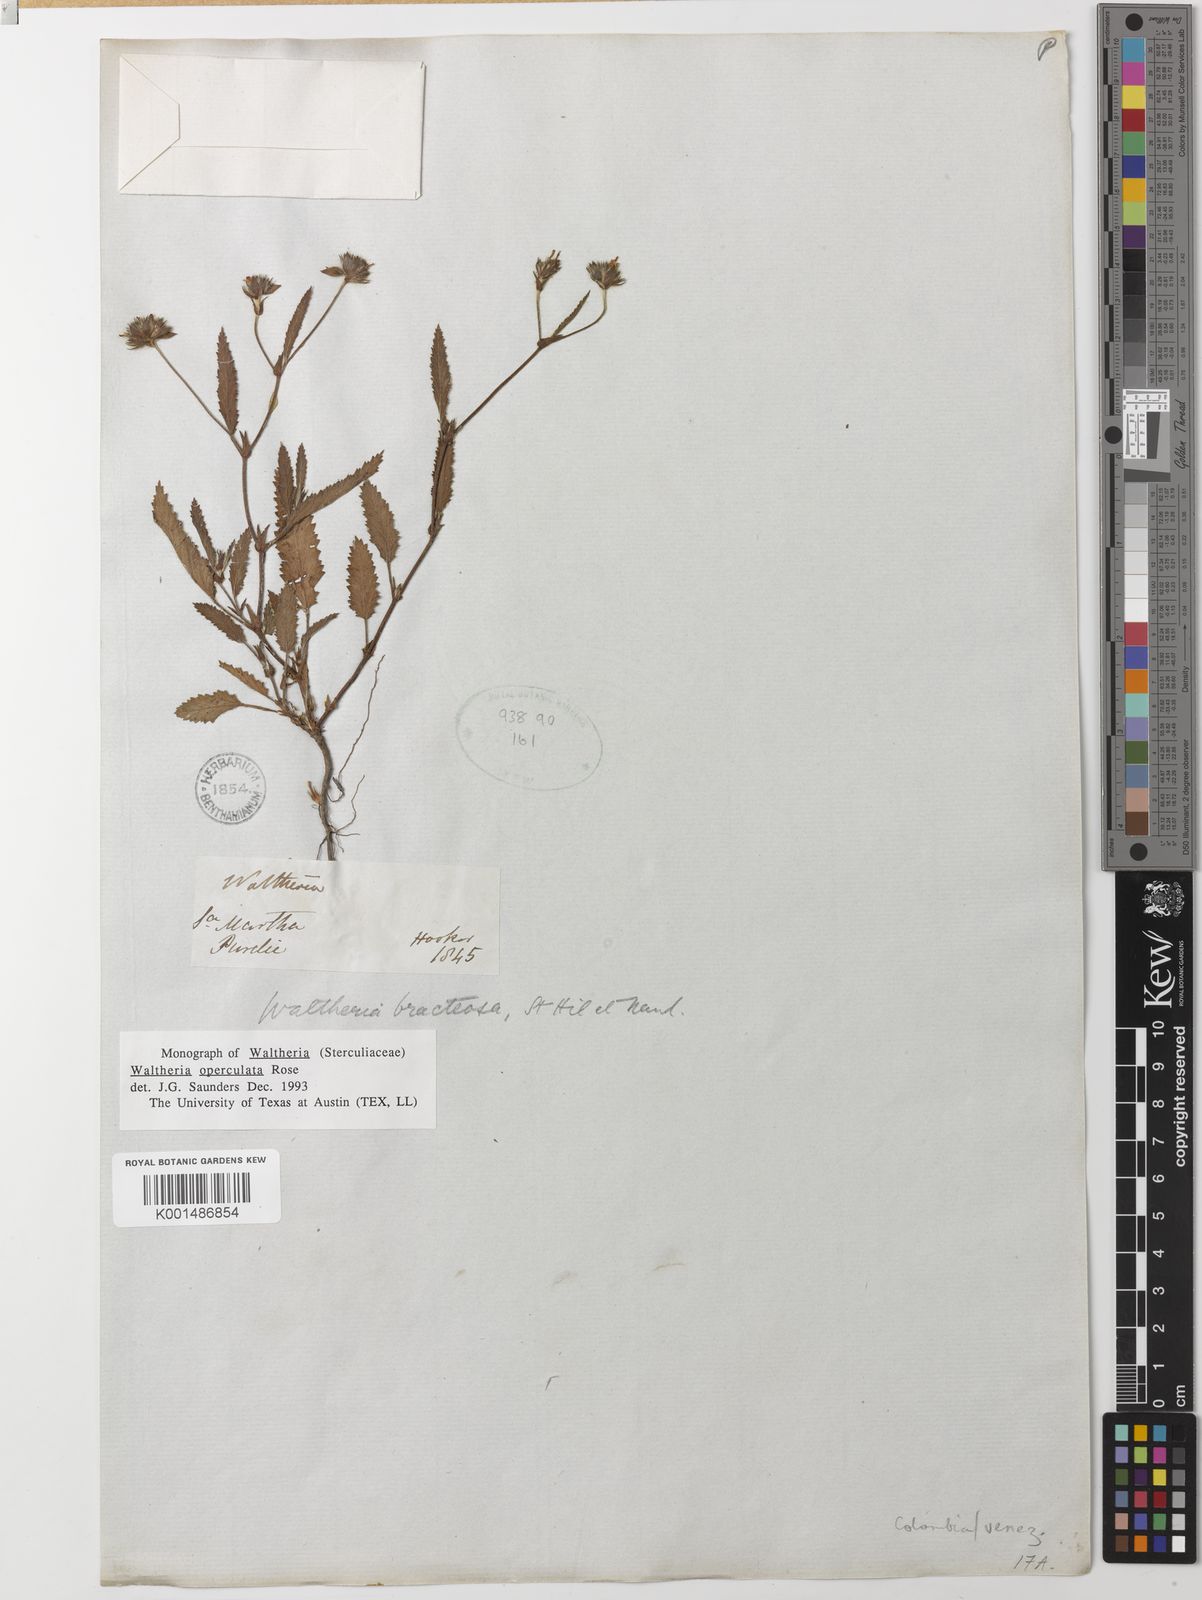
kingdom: Plantae
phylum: Tracheophyta
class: Magnoliopsida
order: Malvales
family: Malvaceae
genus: Waltheria
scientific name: Waltheria operculata
